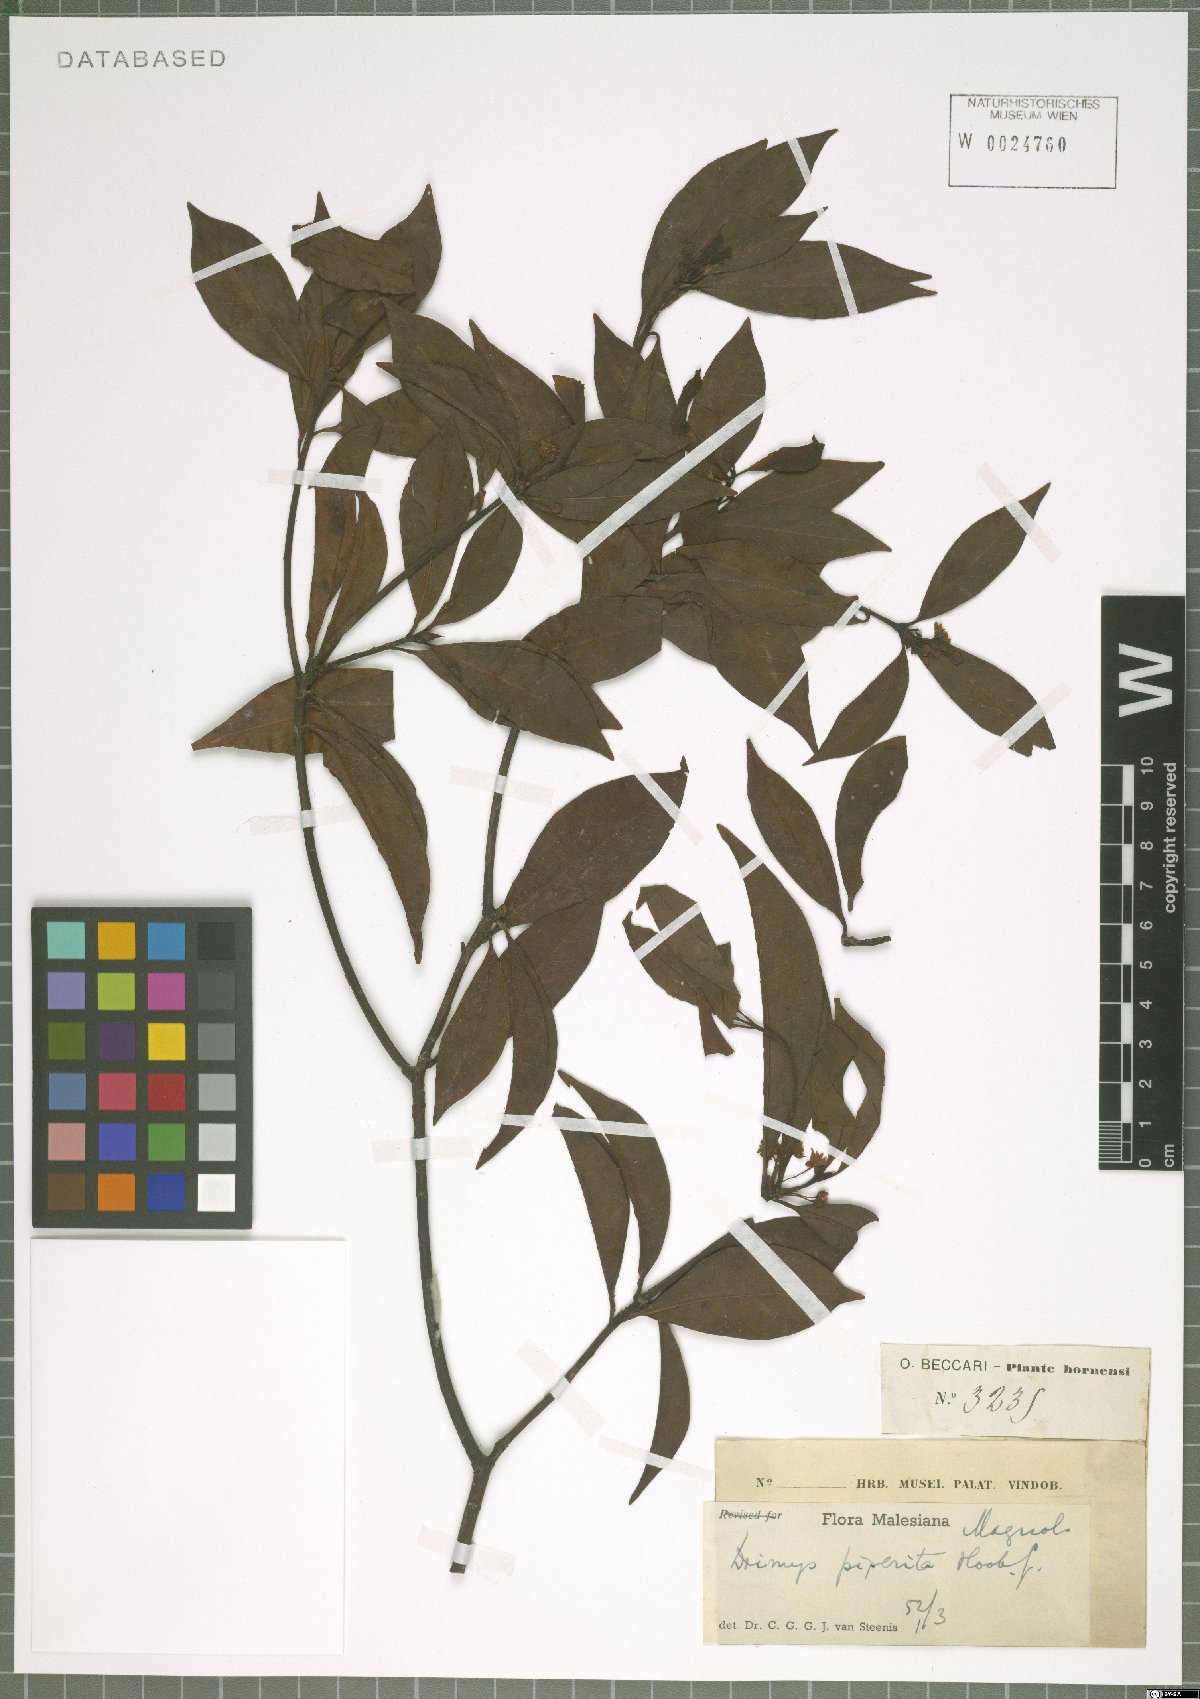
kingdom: Plantae
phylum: Tracheophyta
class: Magnoliopsida
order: Canellales
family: Winteraceae
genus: Drimys
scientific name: Drimys piperita
